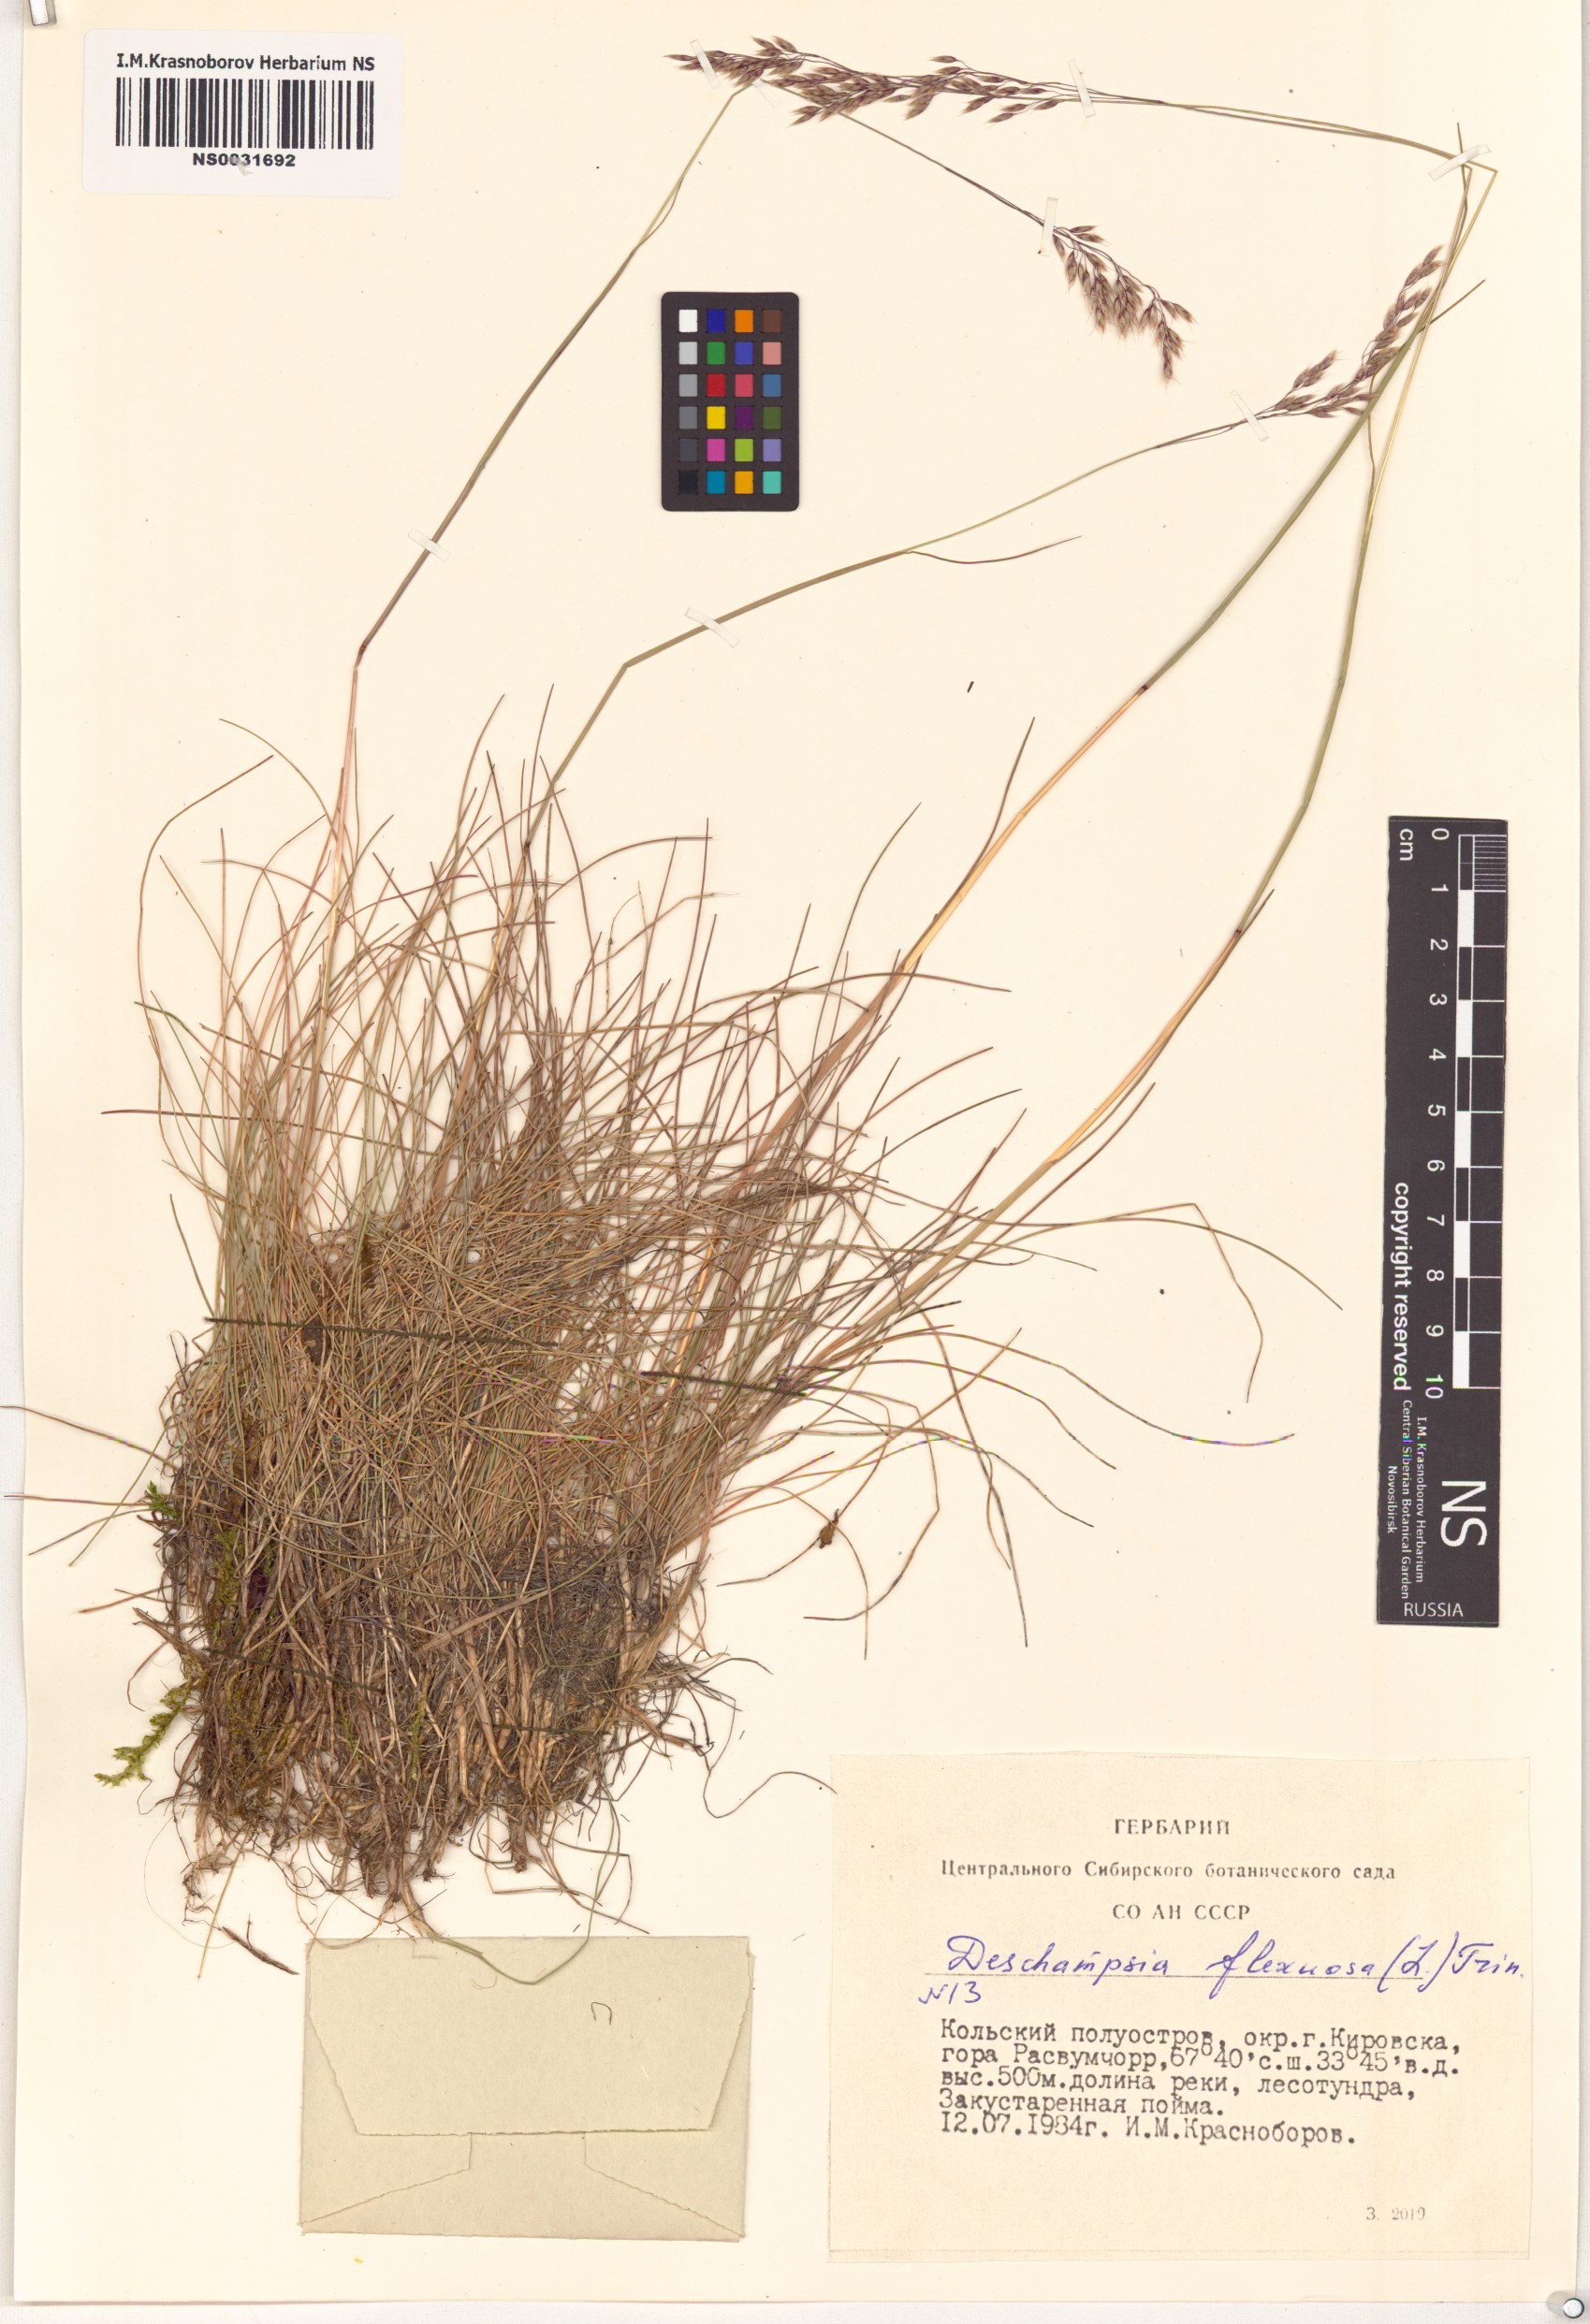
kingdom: Plantae
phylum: Tracheophyta
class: Liliopsida
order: Poales
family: Poaceae
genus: Avenella
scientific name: Avenella flexuosa
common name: Wavy hairgrass
